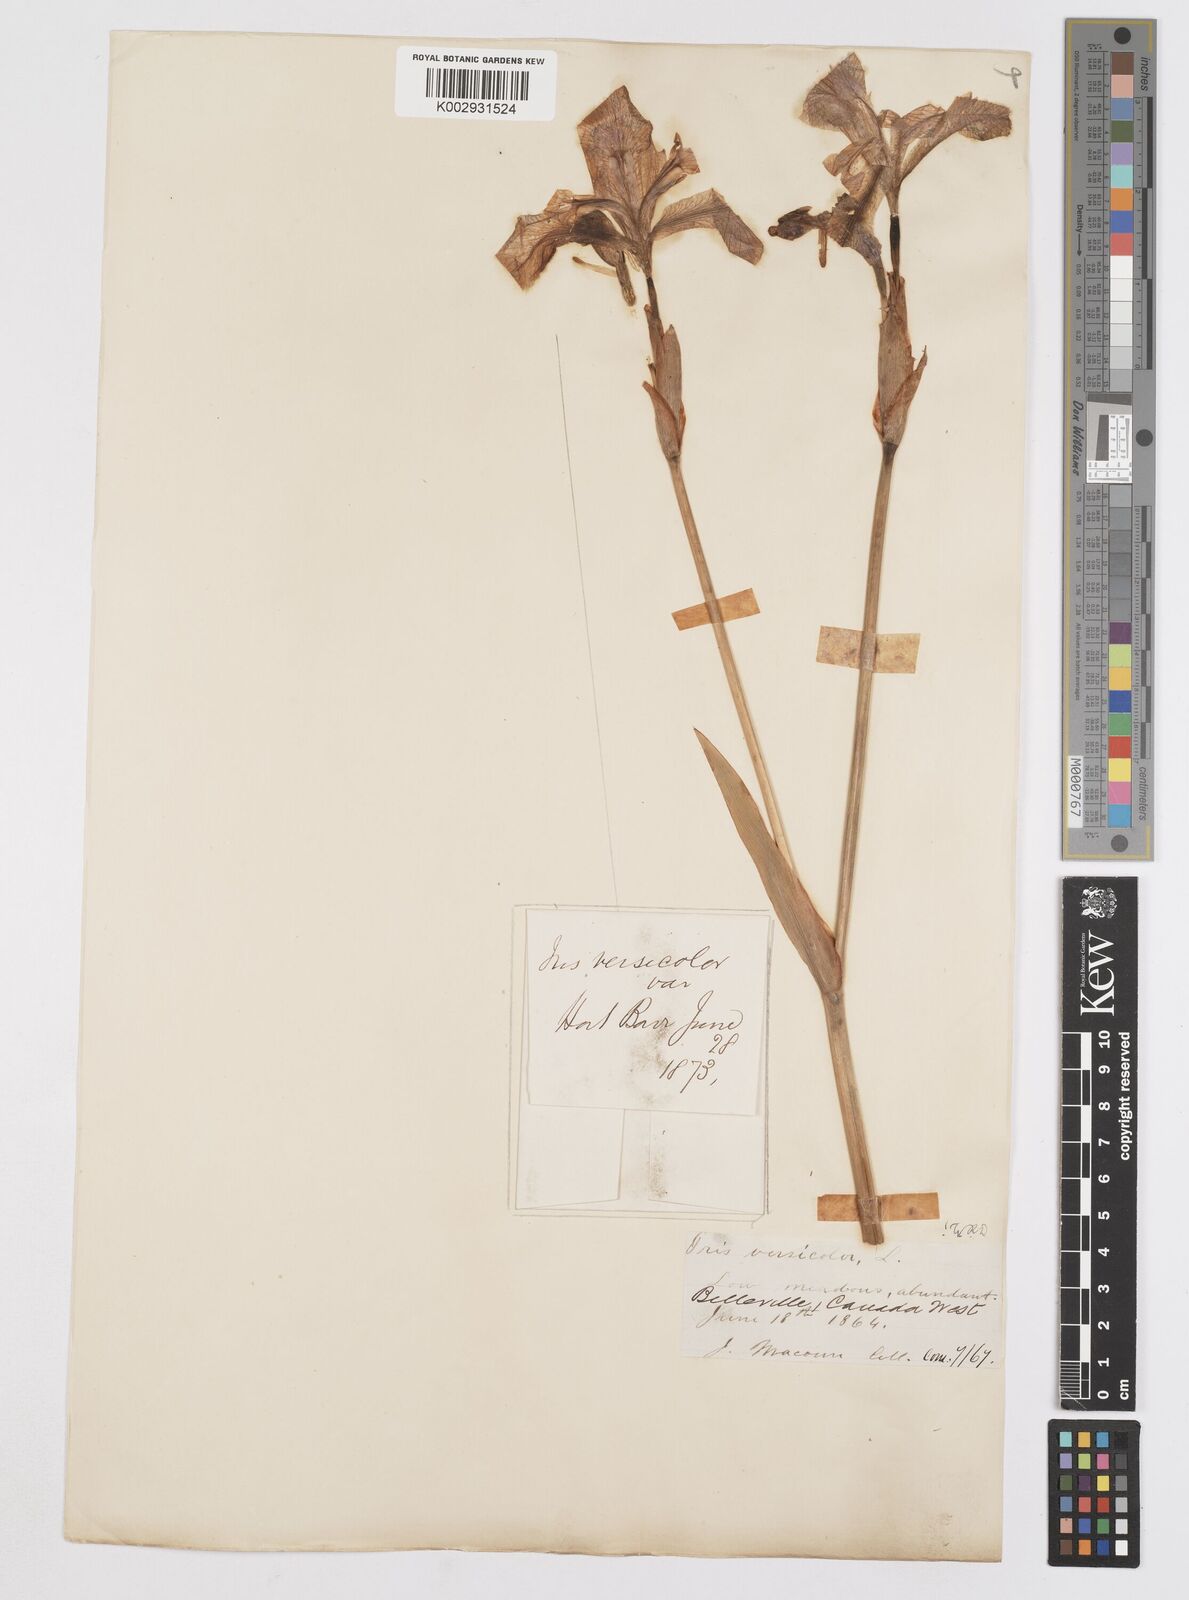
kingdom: Plantae
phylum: Tracheophyta
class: Liliopsida
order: Asparagales
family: Iridaceae
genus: Iris
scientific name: Iris versicolor
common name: Purple iris
